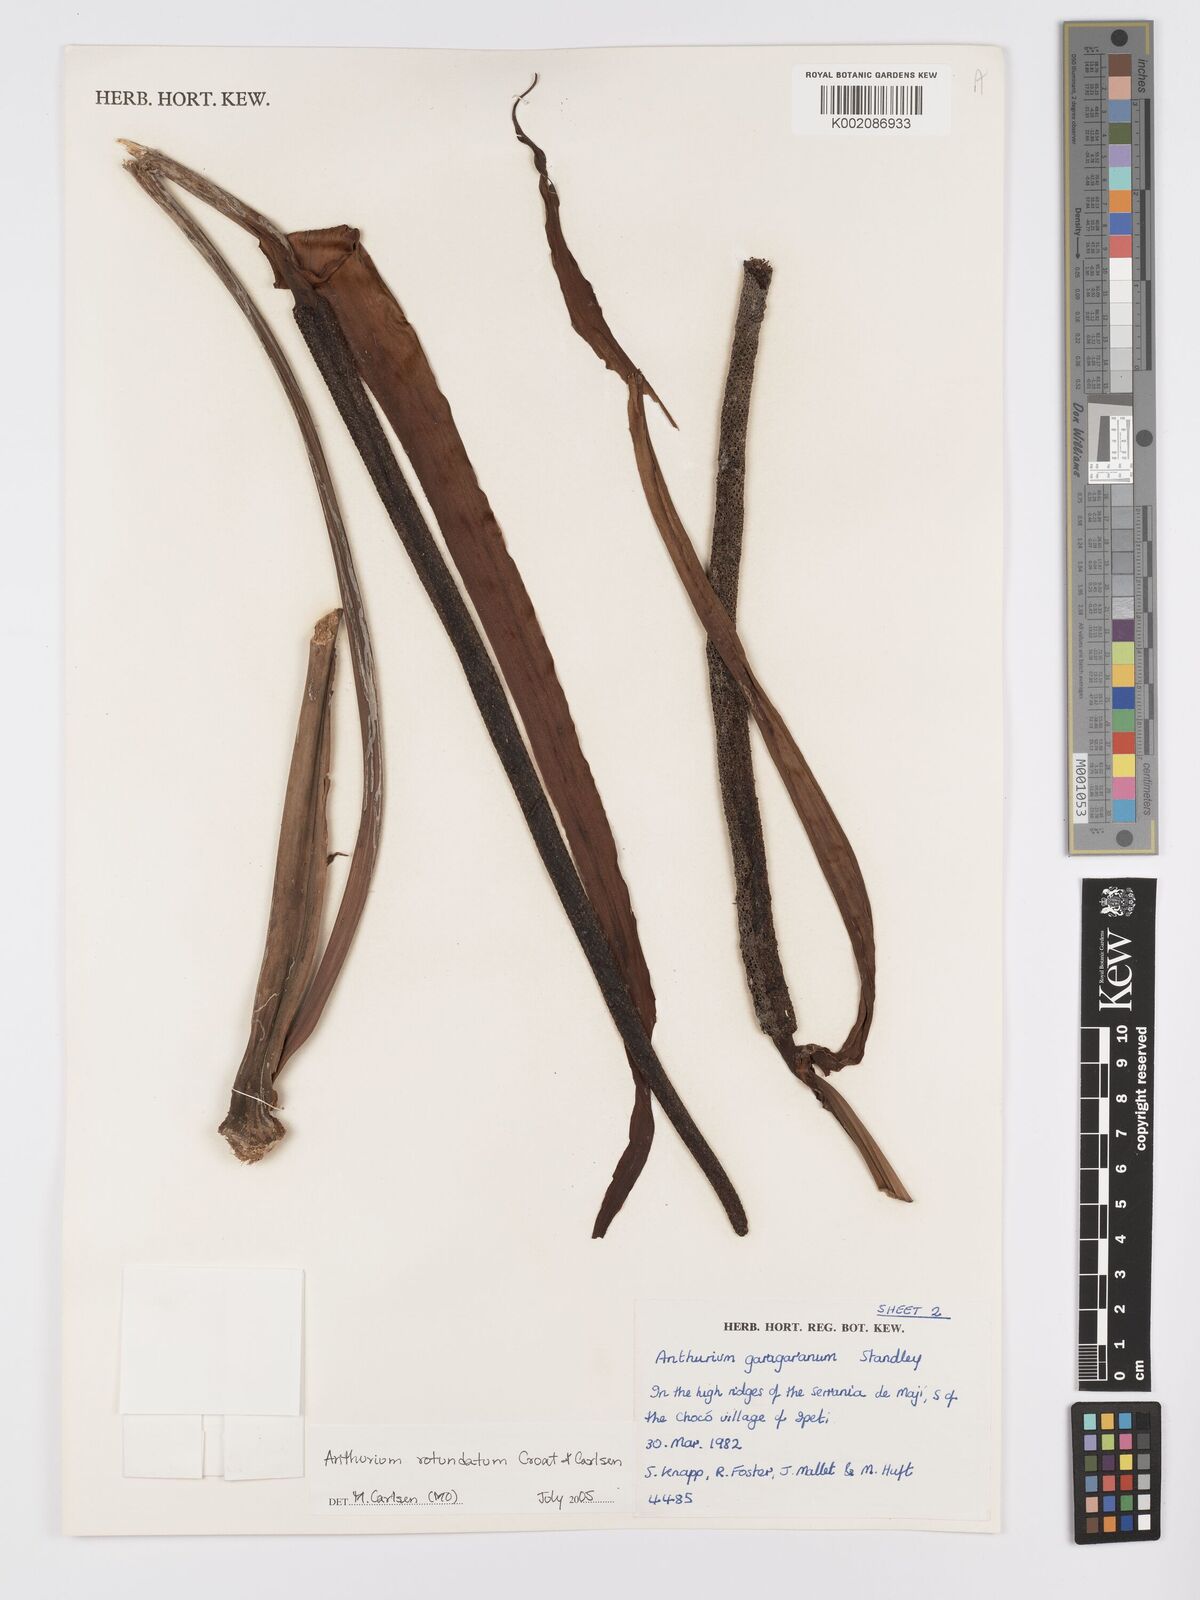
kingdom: Plantae
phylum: Tracheophyta
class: Liliopsida
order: Alismatales
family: Araceae
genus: Anthurium
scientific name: Anthurium rotundatum
